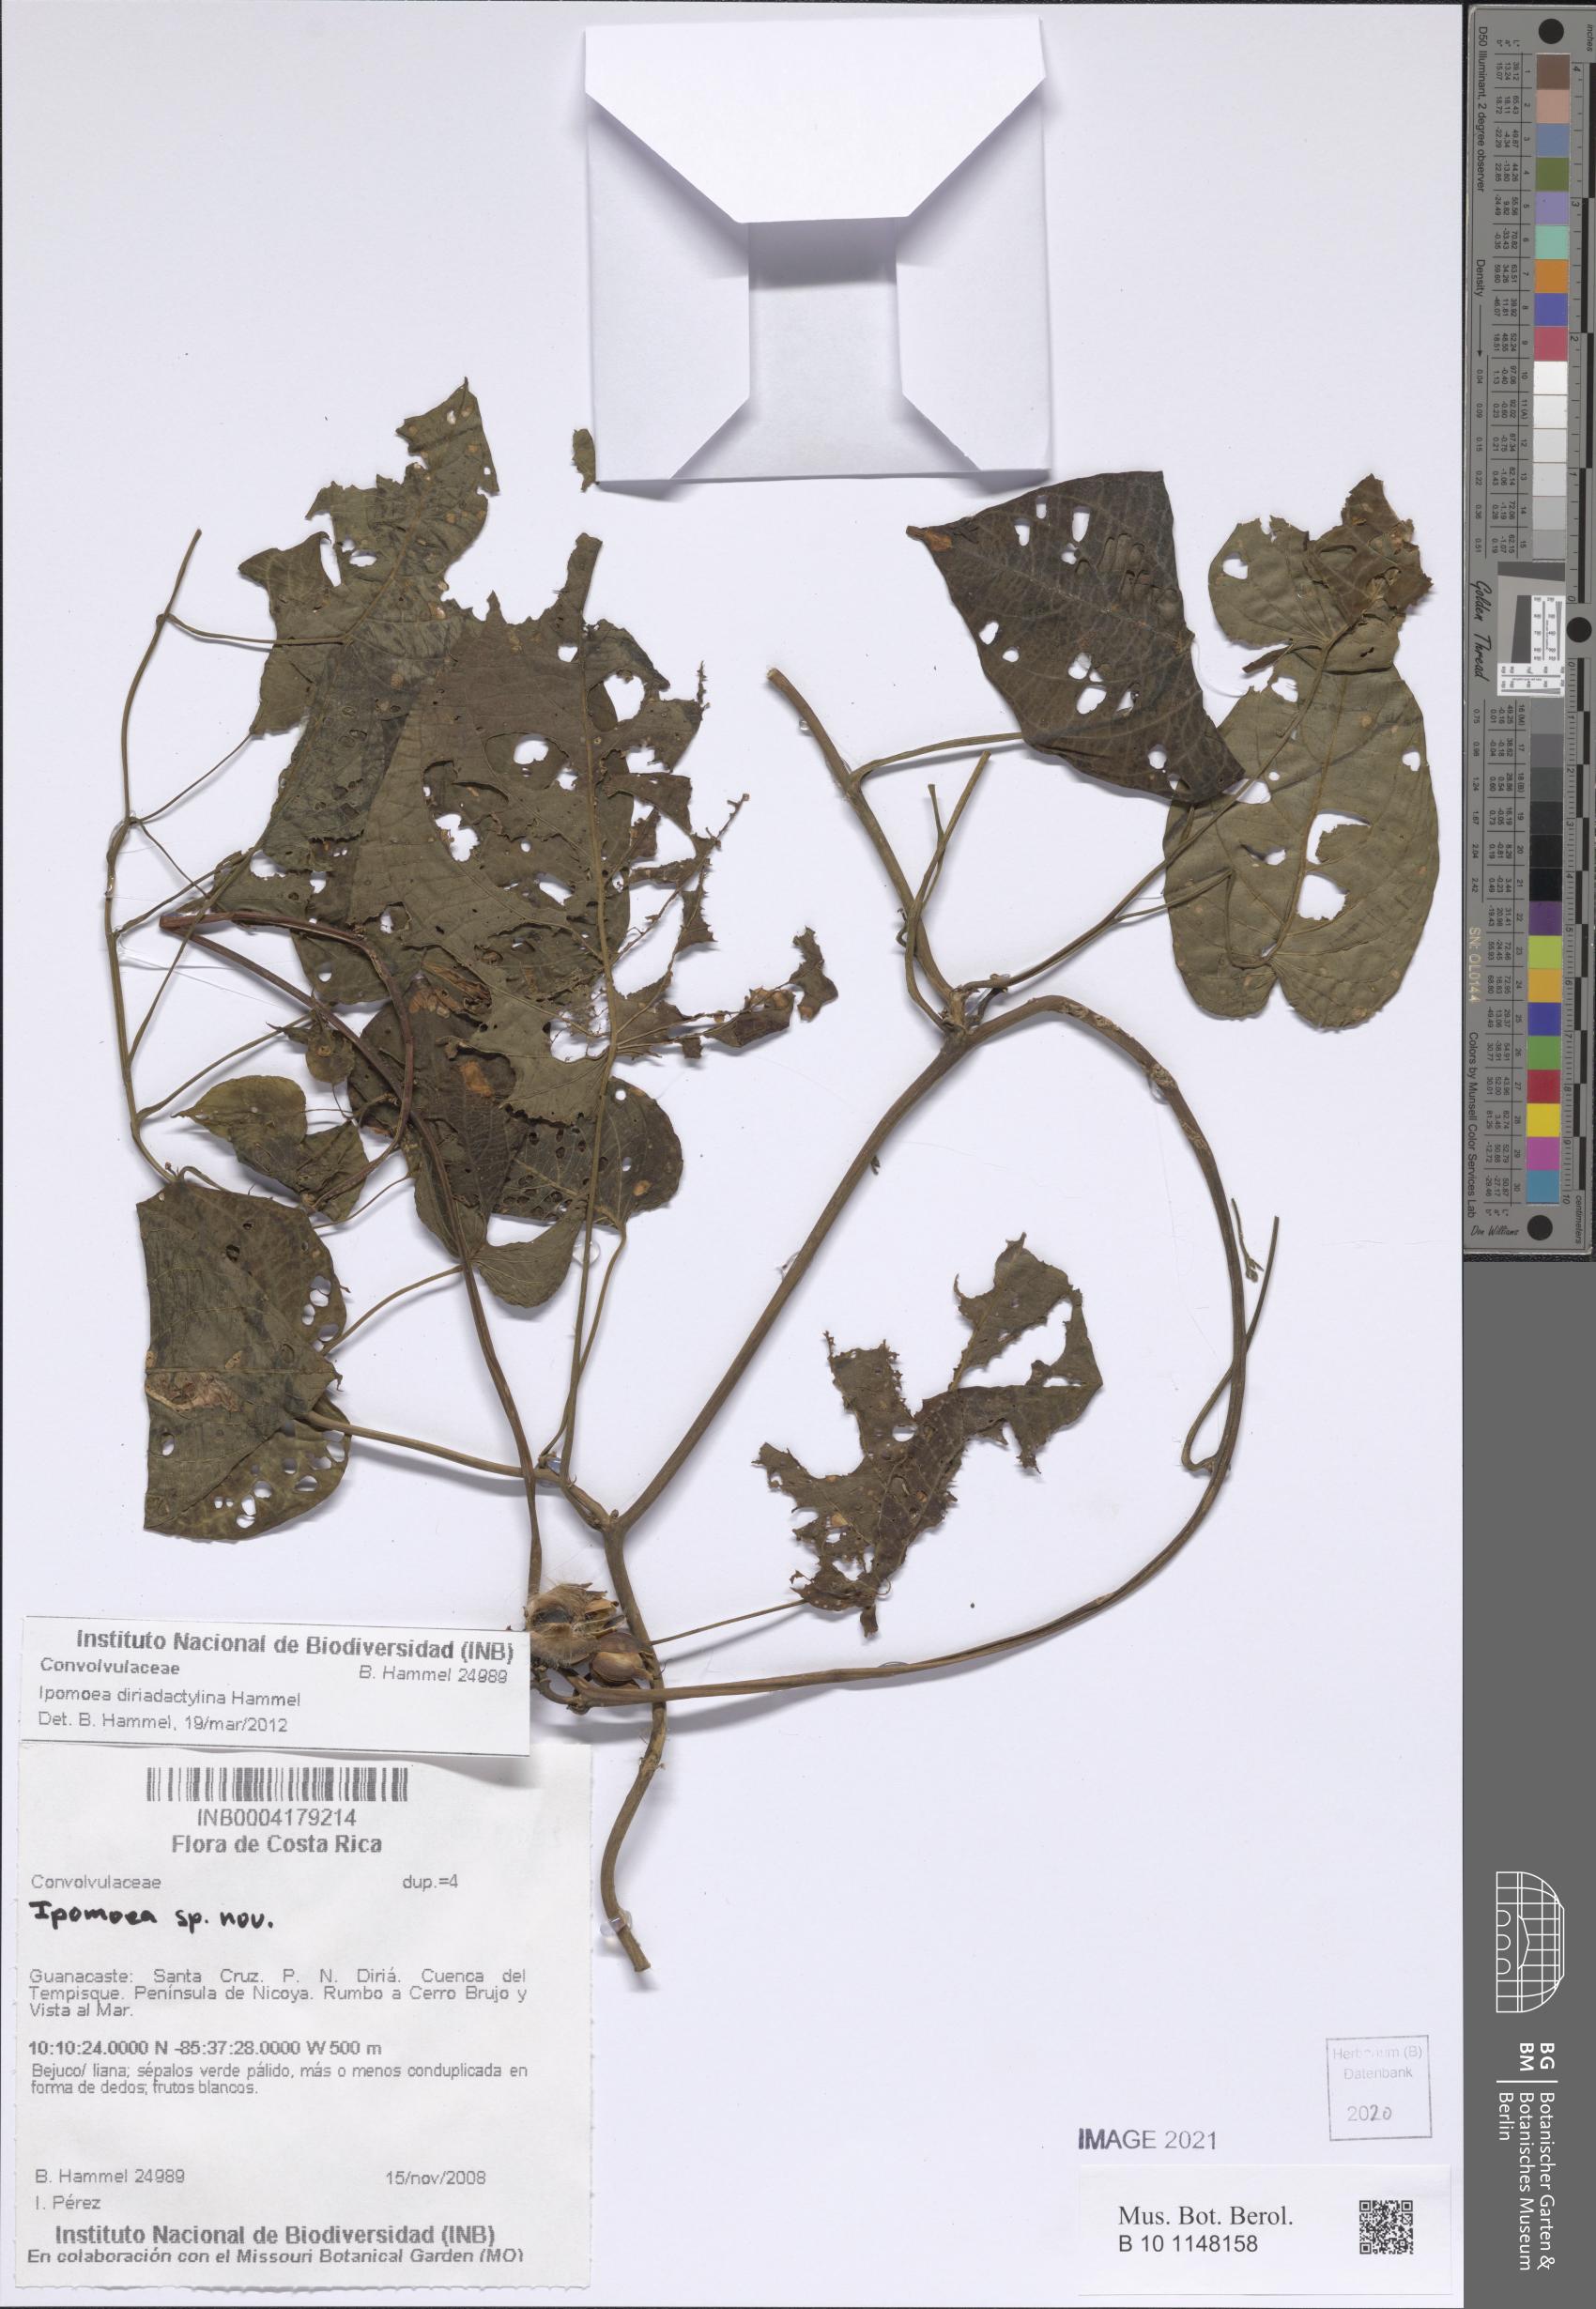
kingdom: Plantae
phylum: Tracheophyta
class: Magnoliopsida
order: Solanales
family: Convolvulaceae
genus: Ipomoea
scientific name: Ipomoea riparum
